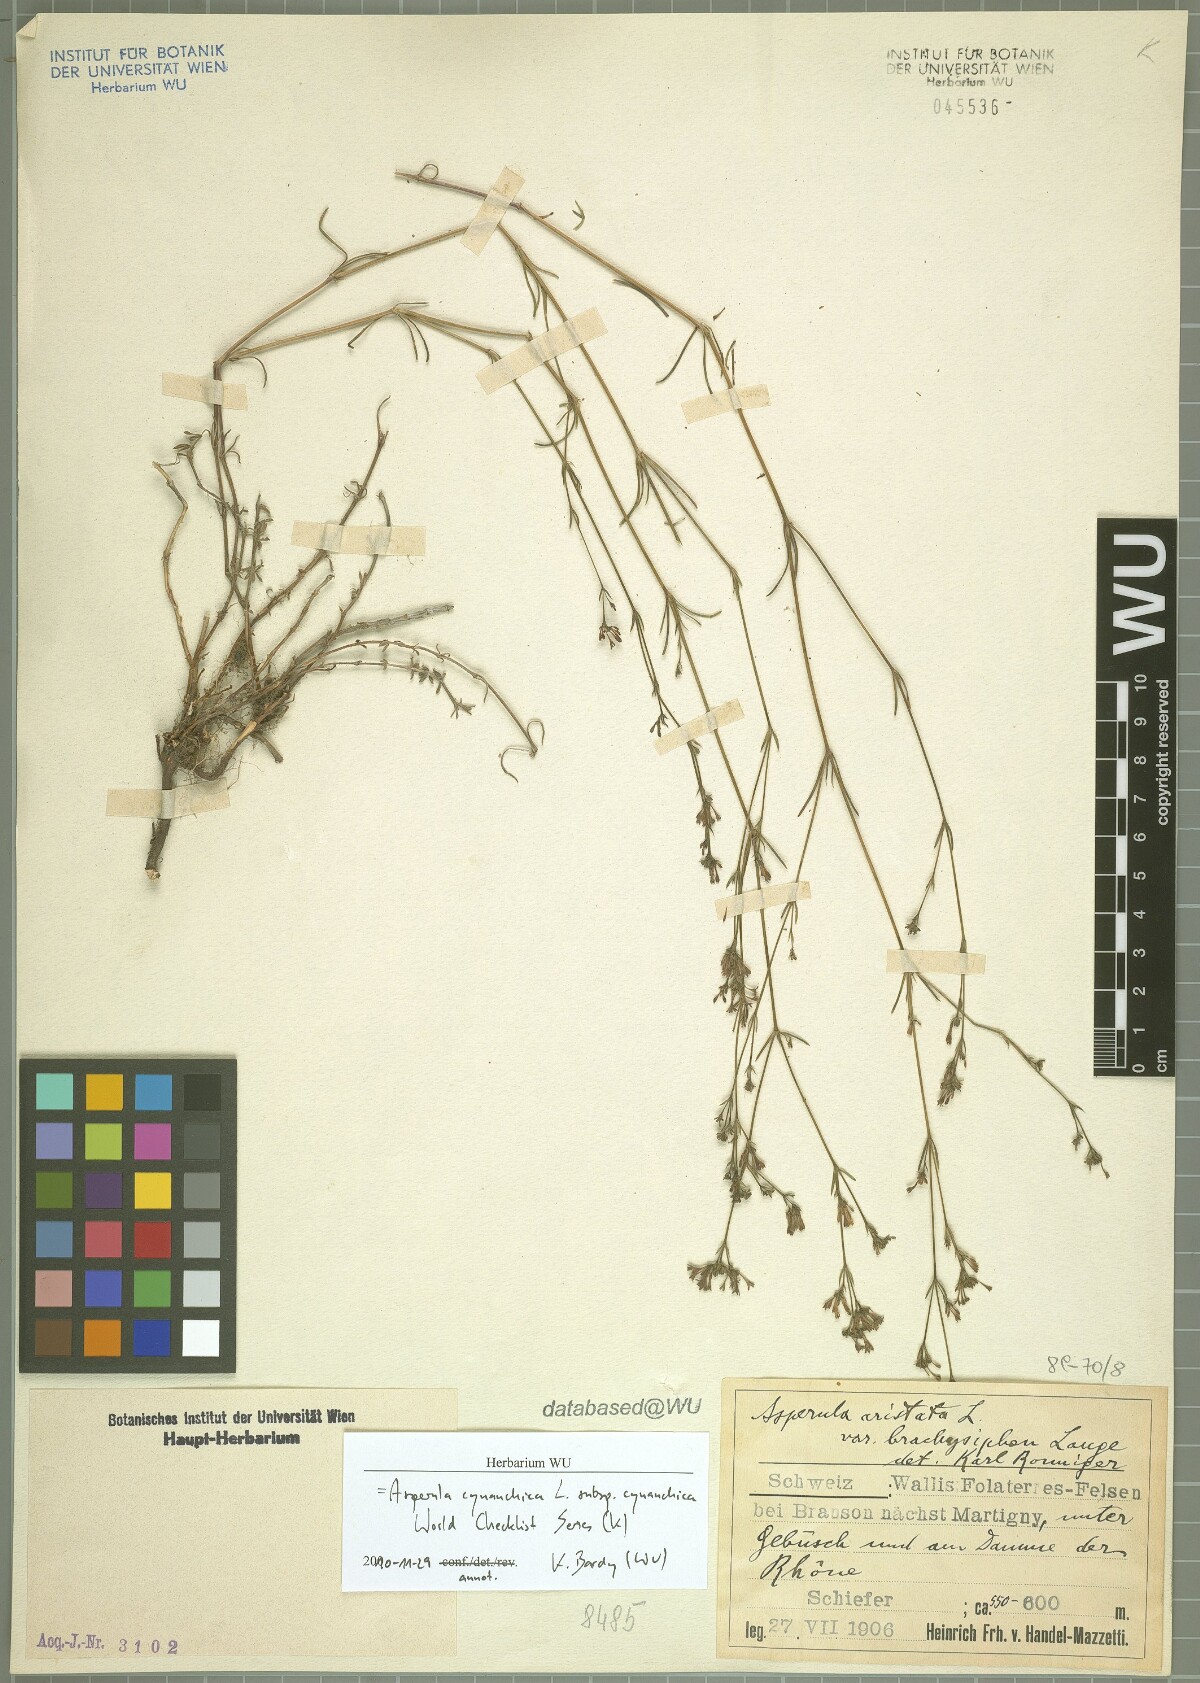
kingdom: Plantae
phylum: Tracheophyta
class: Magnoliopsida
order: Gentianales
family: Rubiaceae
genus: Cynanchica
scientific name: Cynanchica pyrenaica
